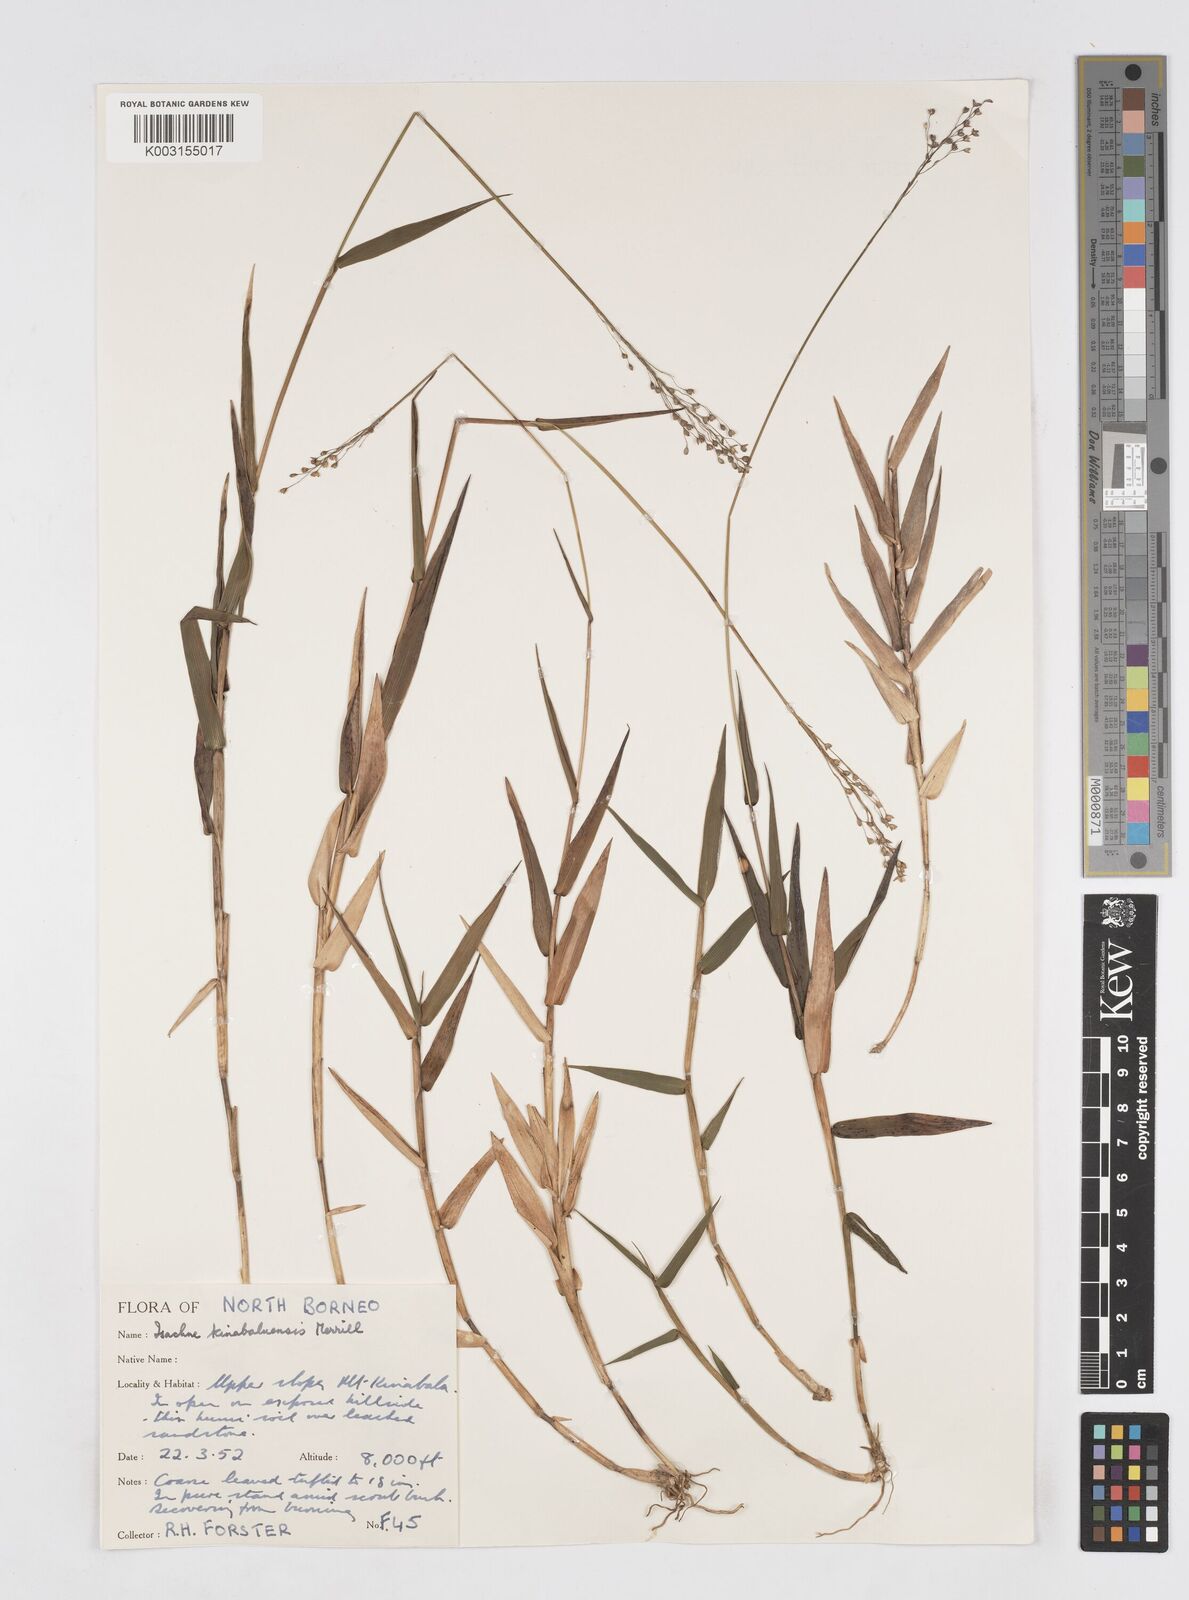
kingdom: Plantae
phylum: Tracheophyta
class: Liliopsida
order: Poales
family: Poaceae
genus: Isachne
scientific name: Isachne kinabaluensis
